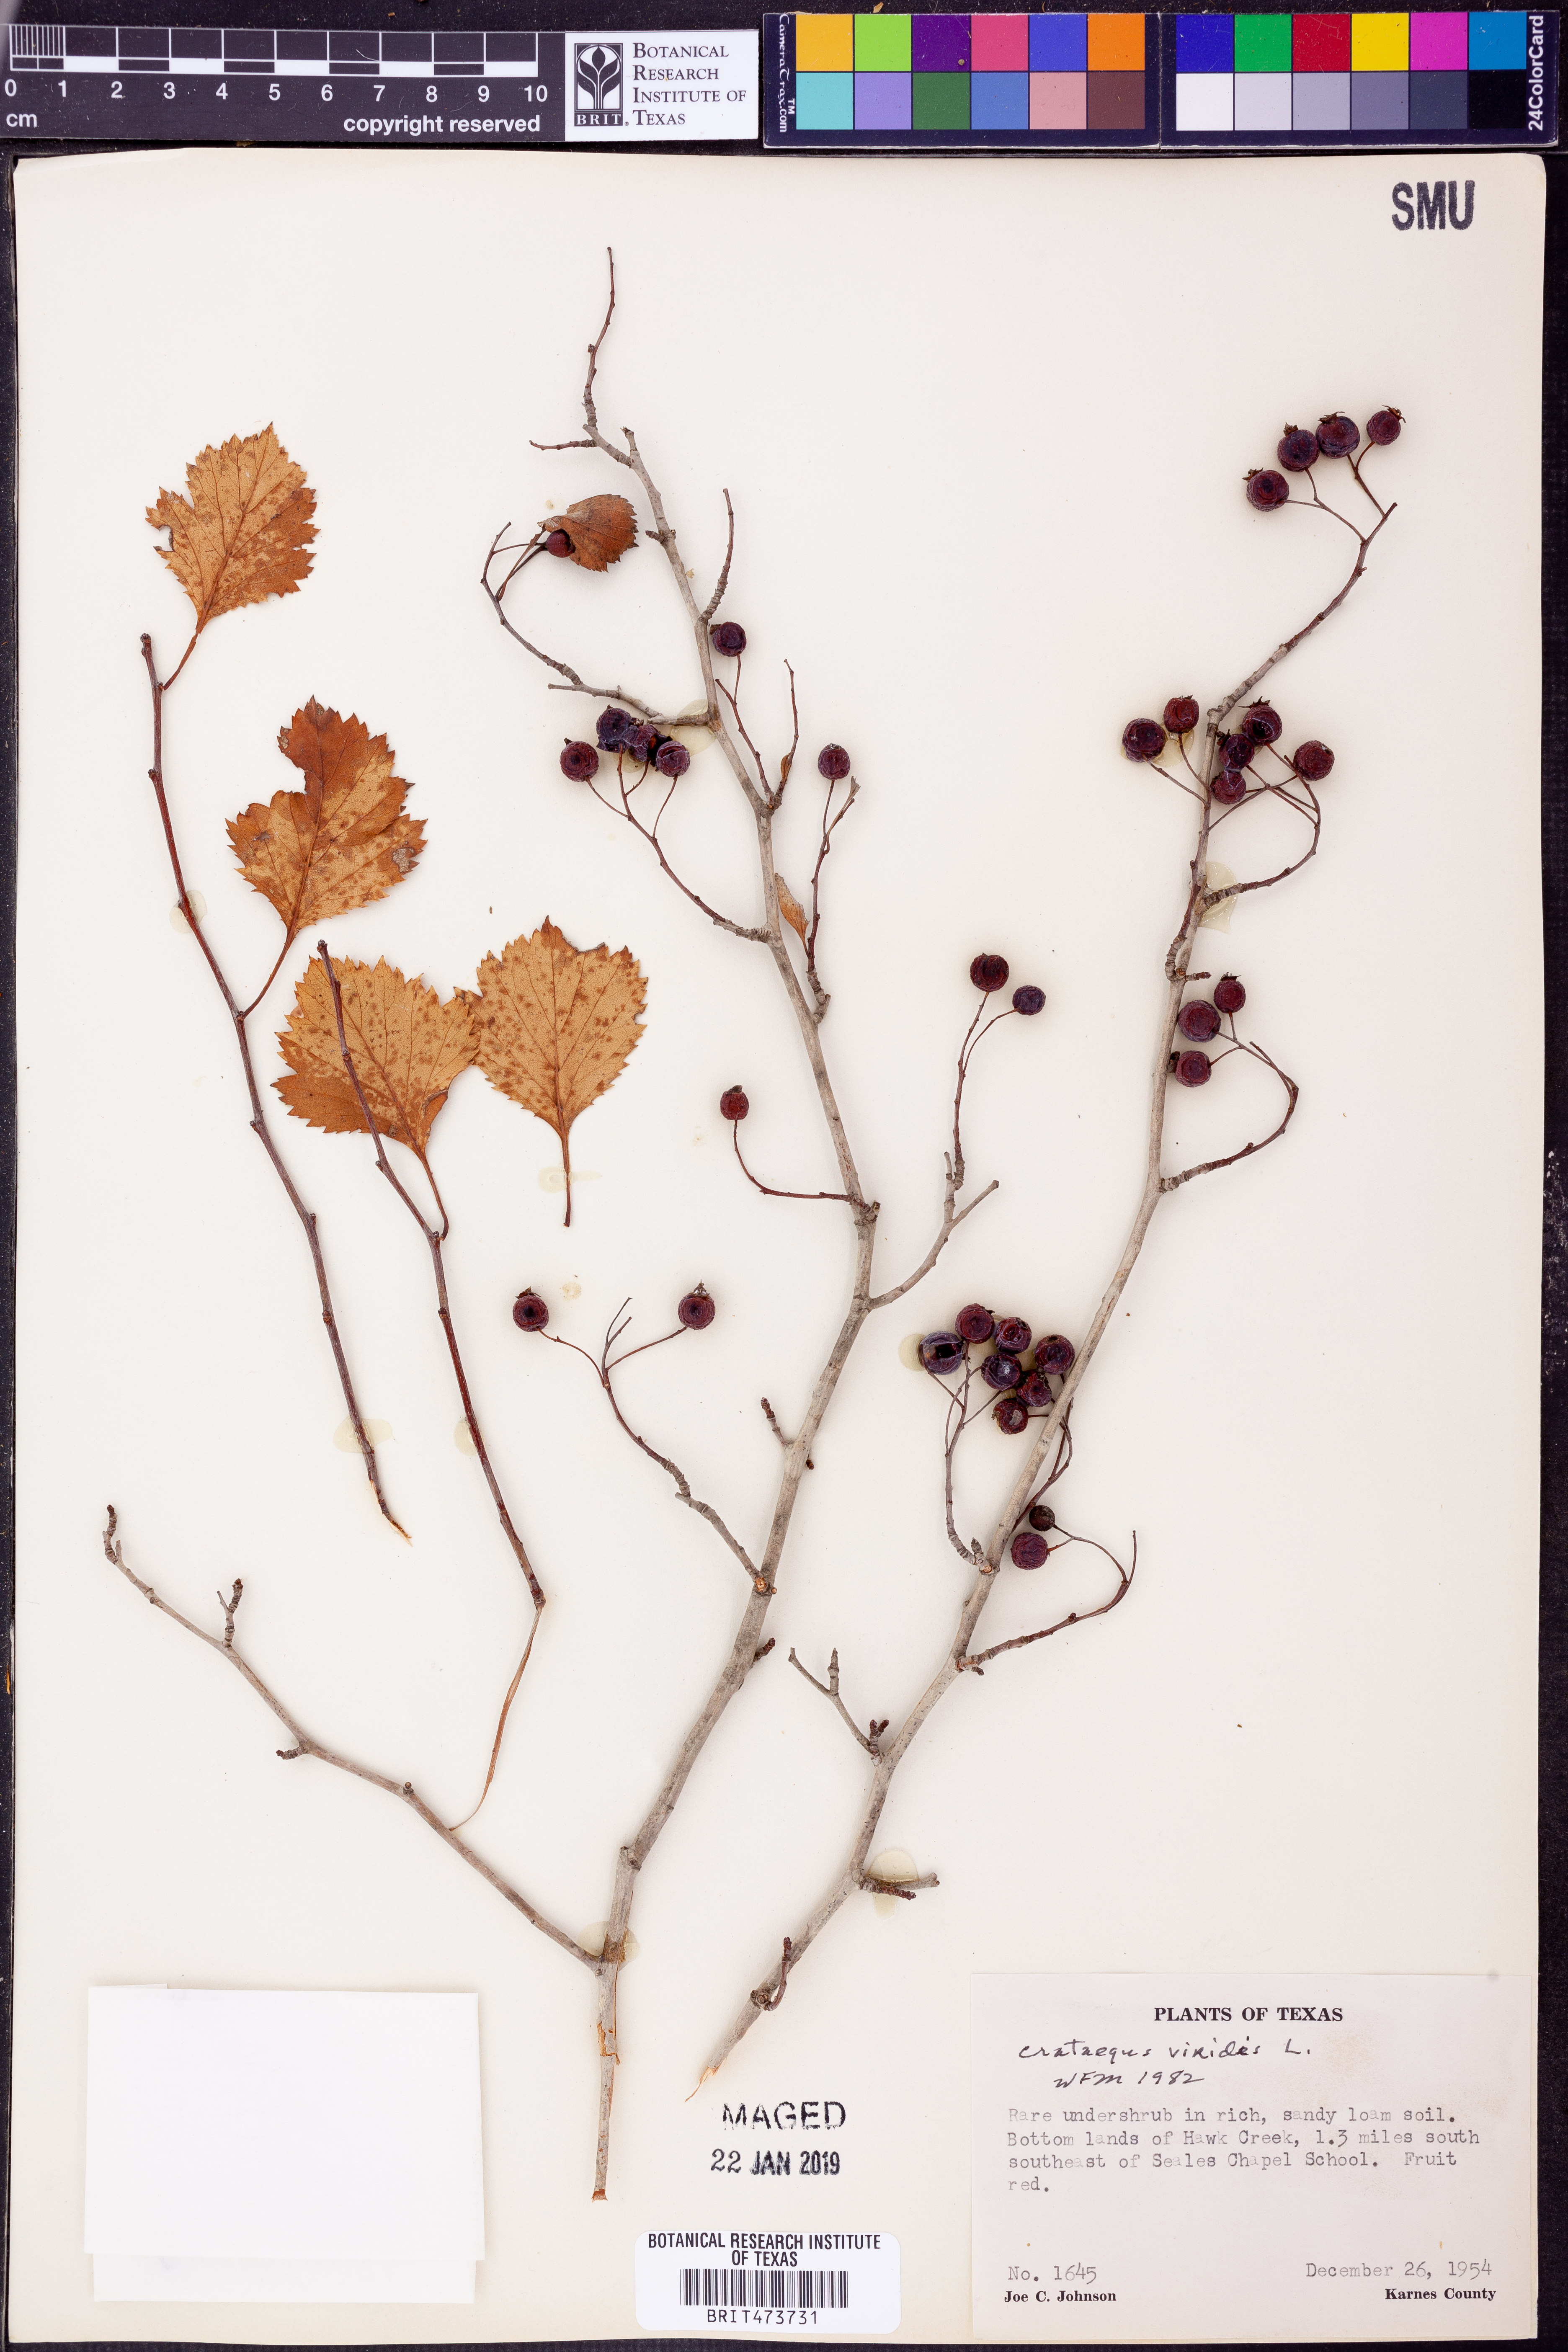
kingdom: Plantae
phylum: Tracheophyta
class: Magnoliopsida
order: Rosales
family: Rosaceae
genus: Crataegus
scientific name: Crataegus viridis
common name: Southernthorn
